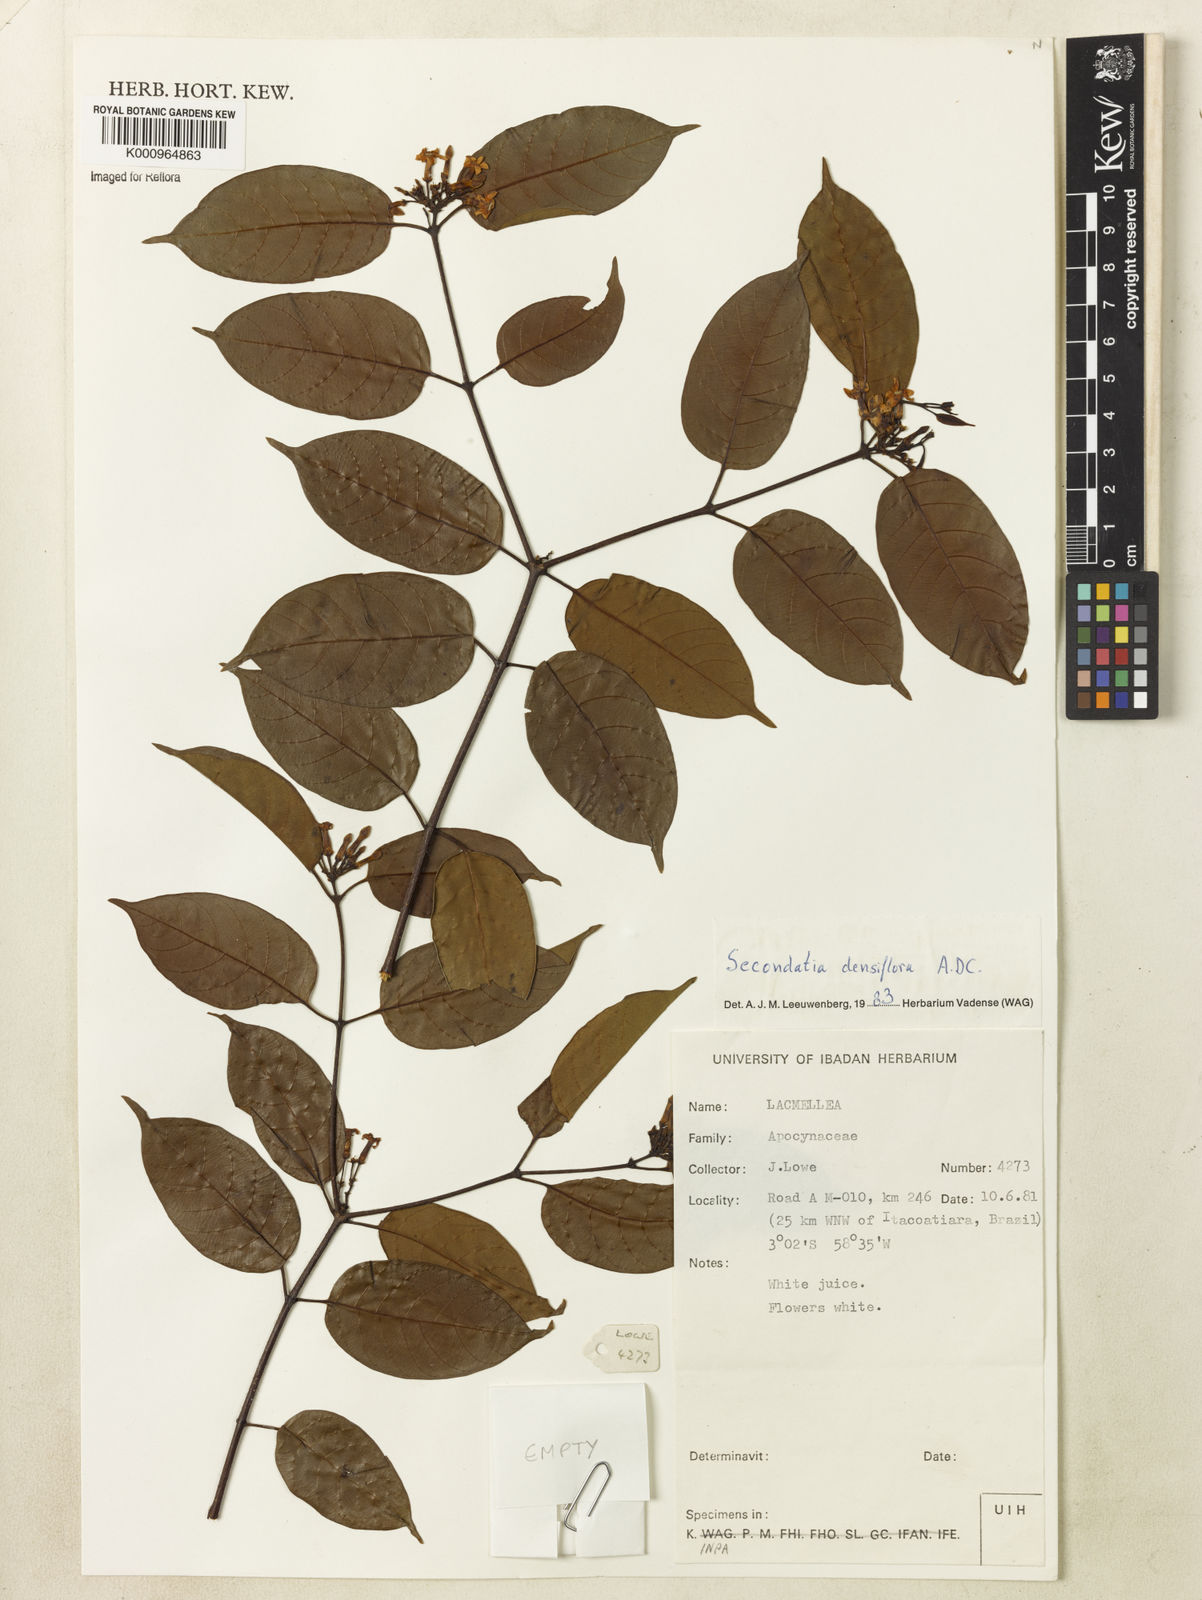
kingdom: Plantae
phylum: Tracheophyta
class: Magnoliopsida
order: Gentianales
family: Apocynaceae
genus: Secondatia
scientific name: Secondatia densiflora
